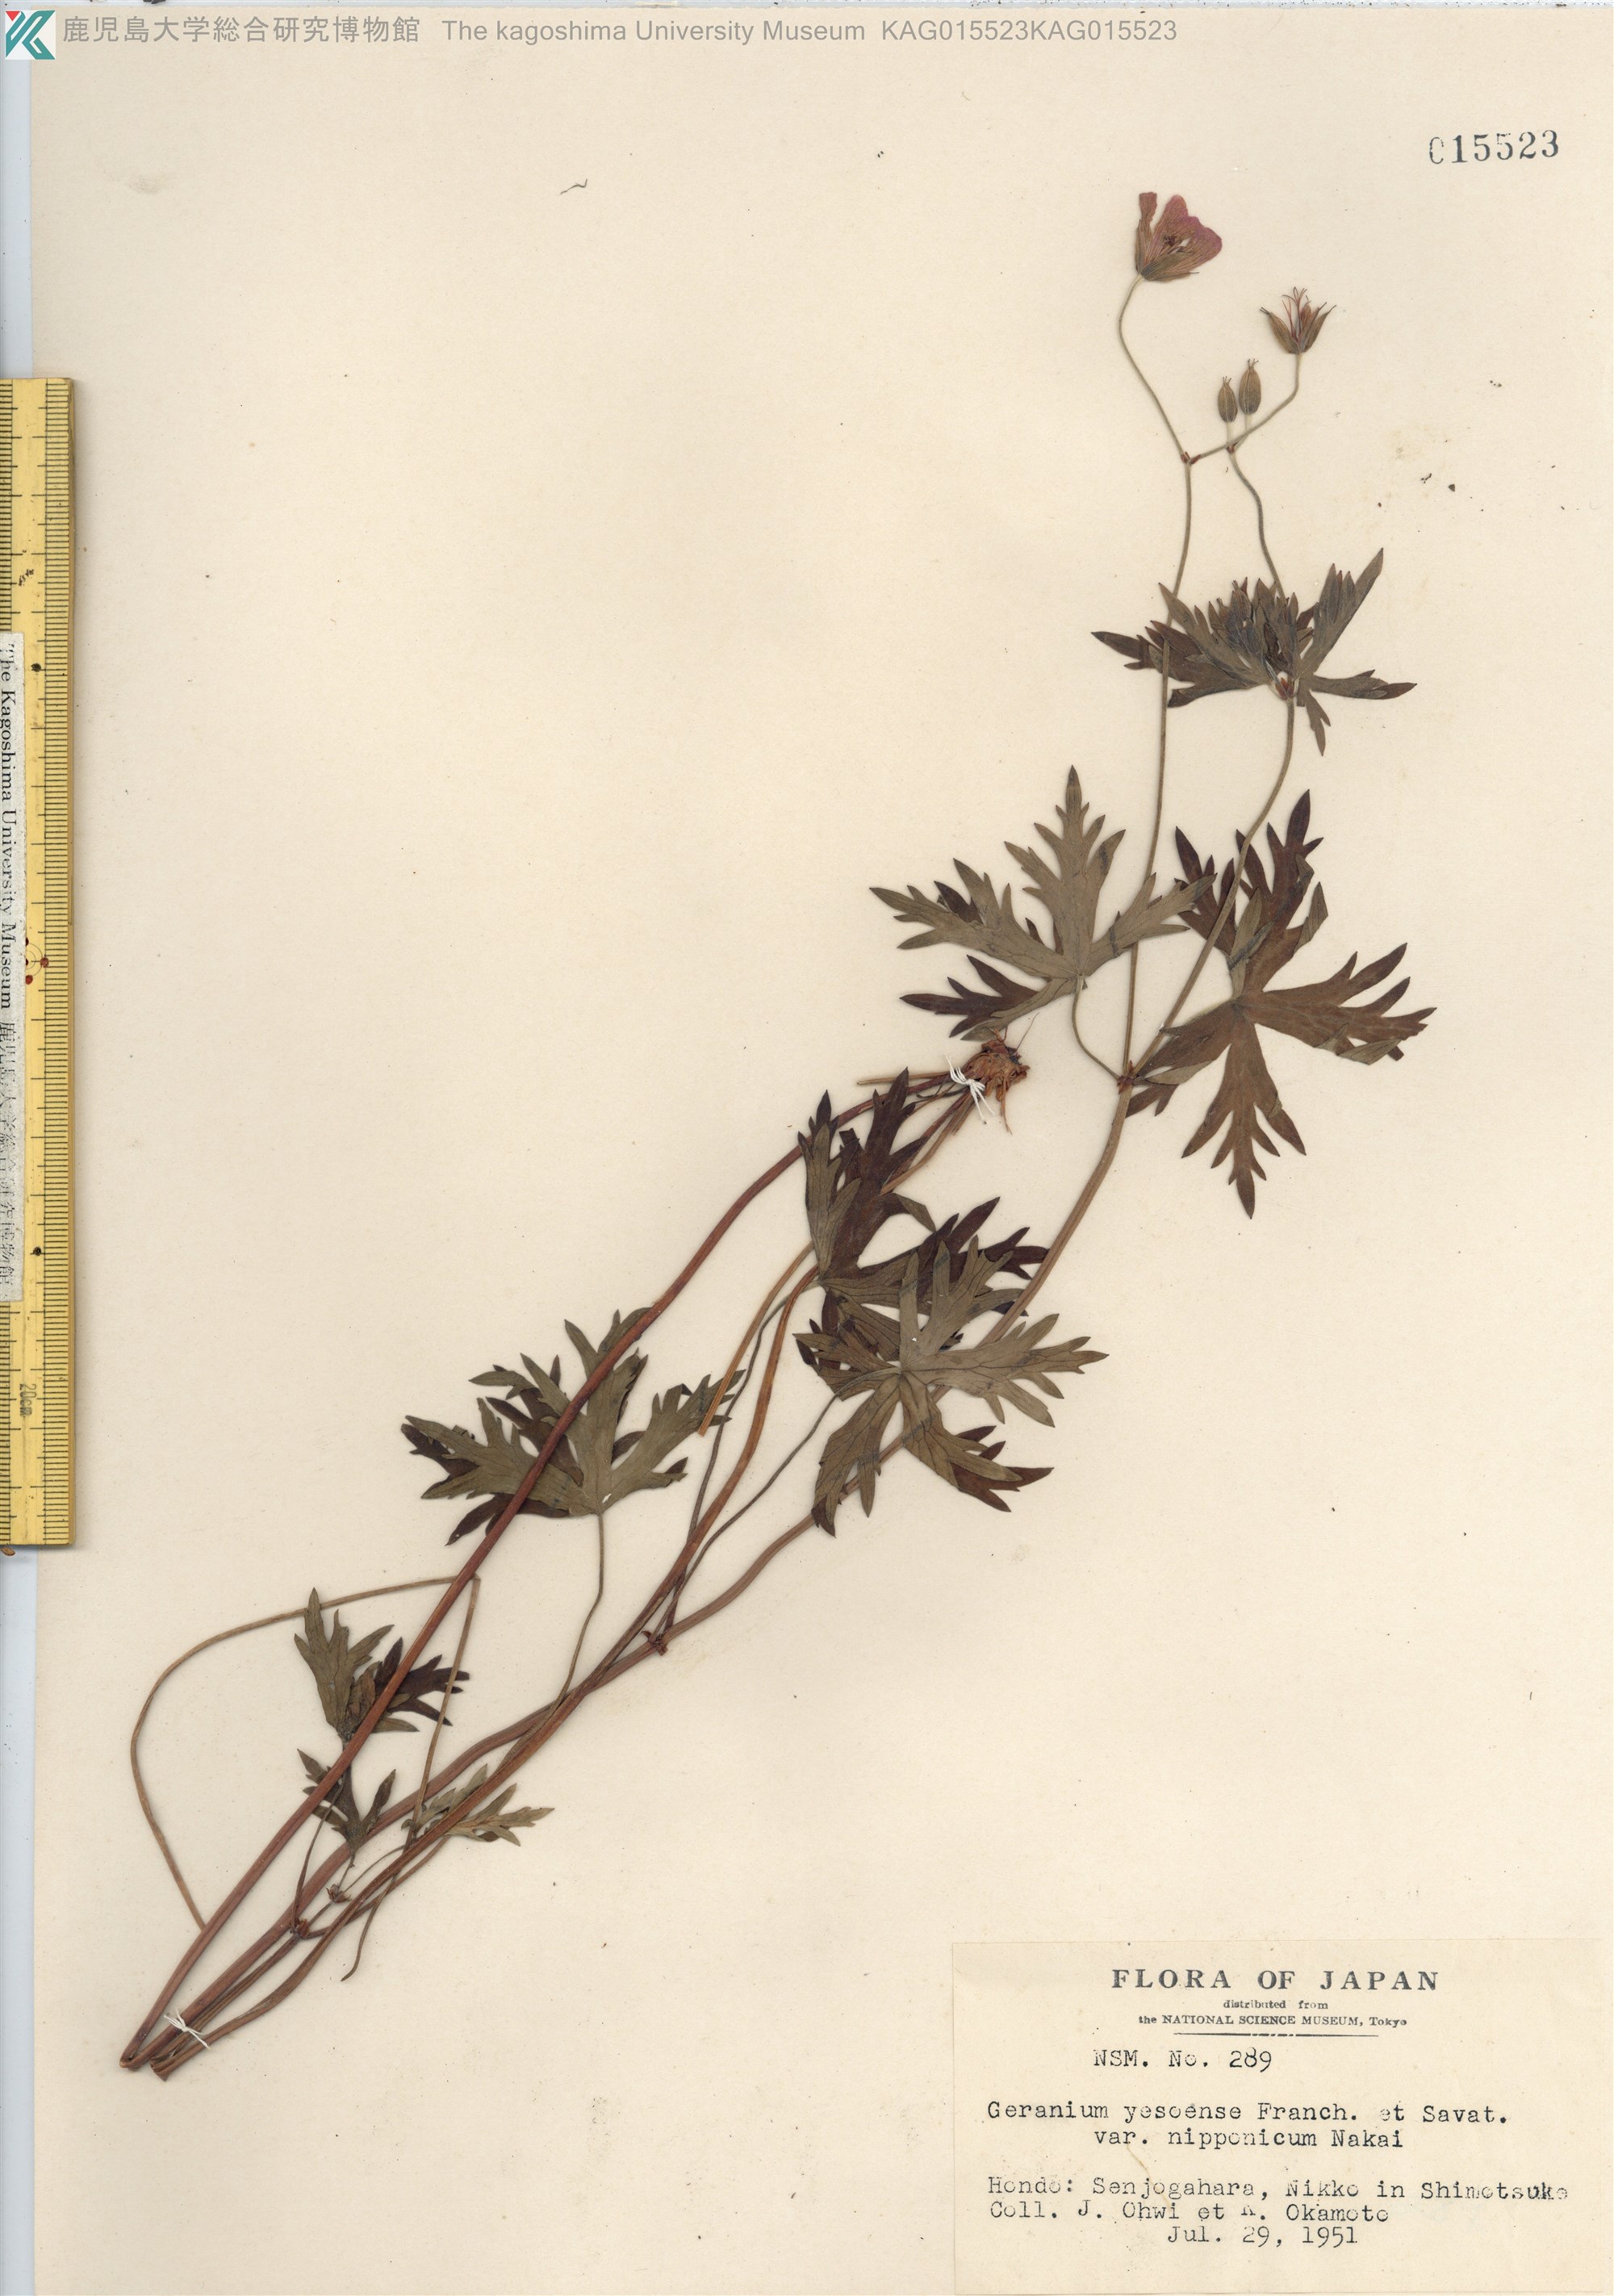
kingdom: Plantae
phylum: Tracheophyta
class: Magnoliopsida
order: Geraniales
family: Geraniaceae
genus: Geranium
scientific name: Geranium yesoense
